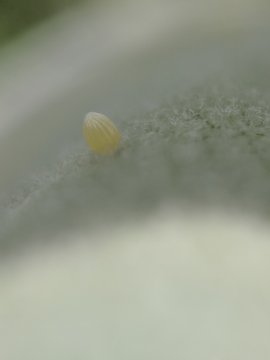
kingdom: Animalia
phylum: Arthropoda
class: Insecta
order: Lepidoptera
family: Nymphalidae
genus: Danaus
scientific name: Danaus plexippus
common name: Monarch
